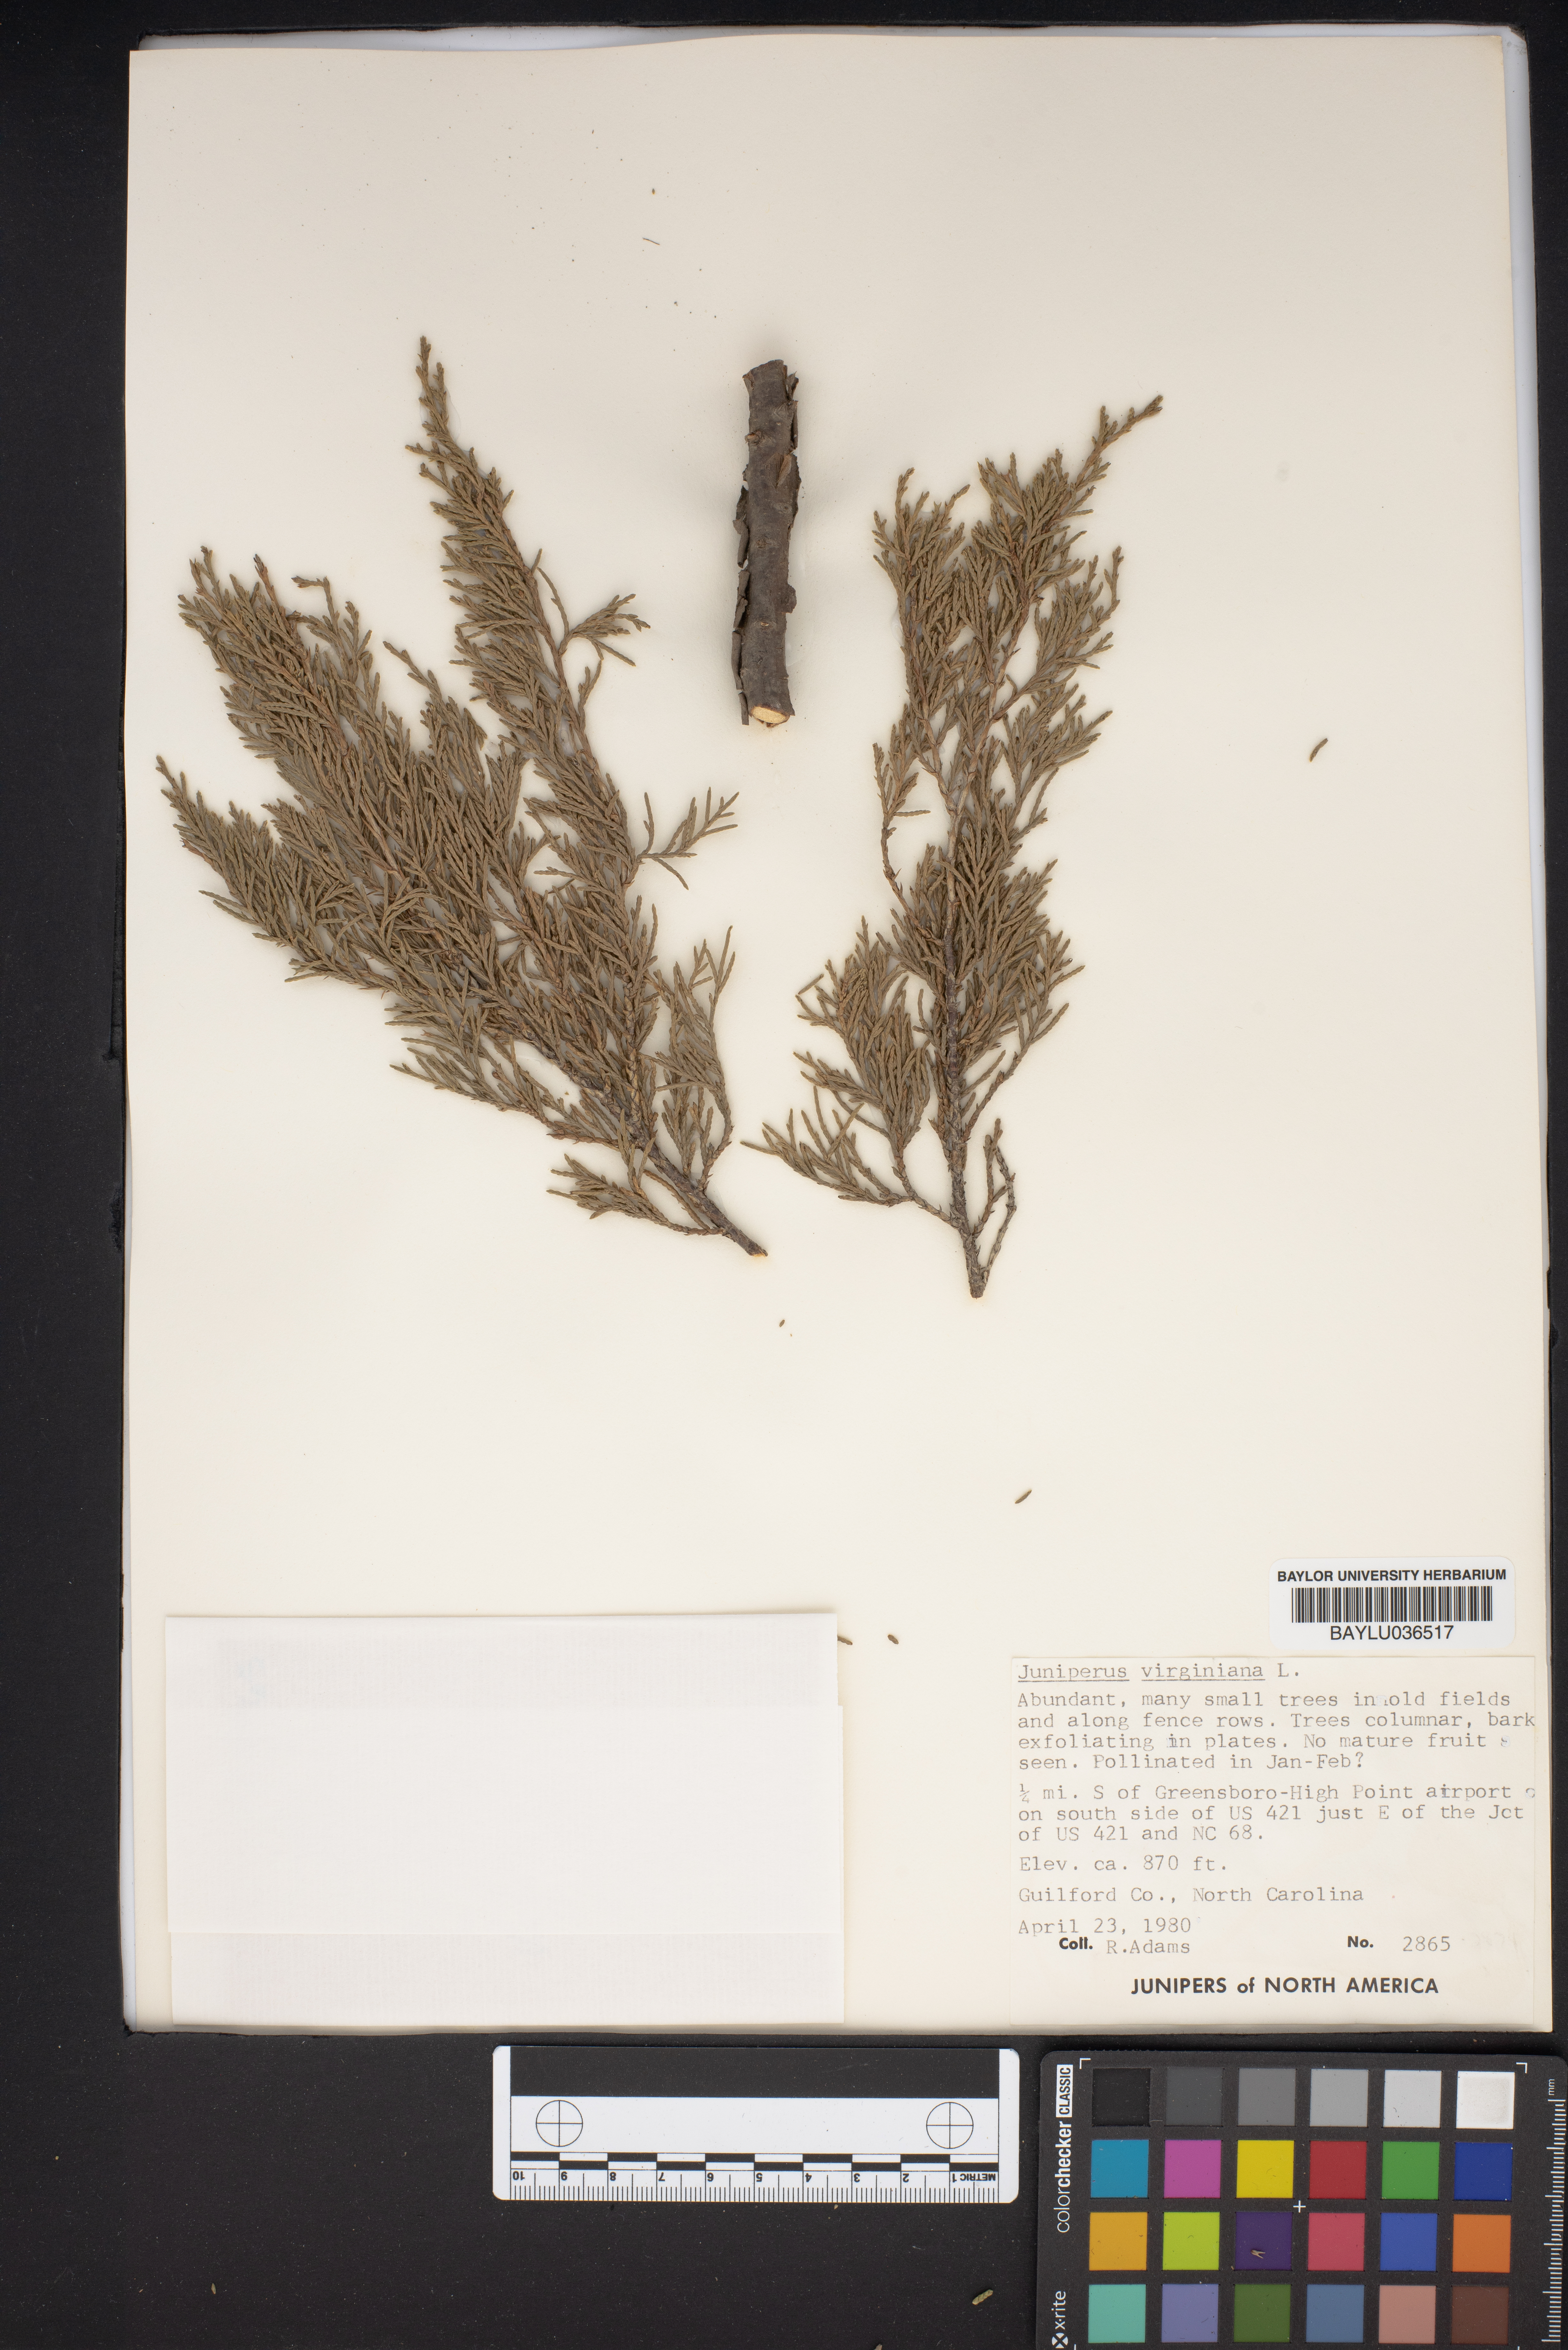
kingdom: Plantae
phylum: Tracheophyta
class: Pinopsida
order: Pinales
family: Cupressaceae
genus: Juniperus
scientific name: Juniperus virginiana
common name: Red juniper
